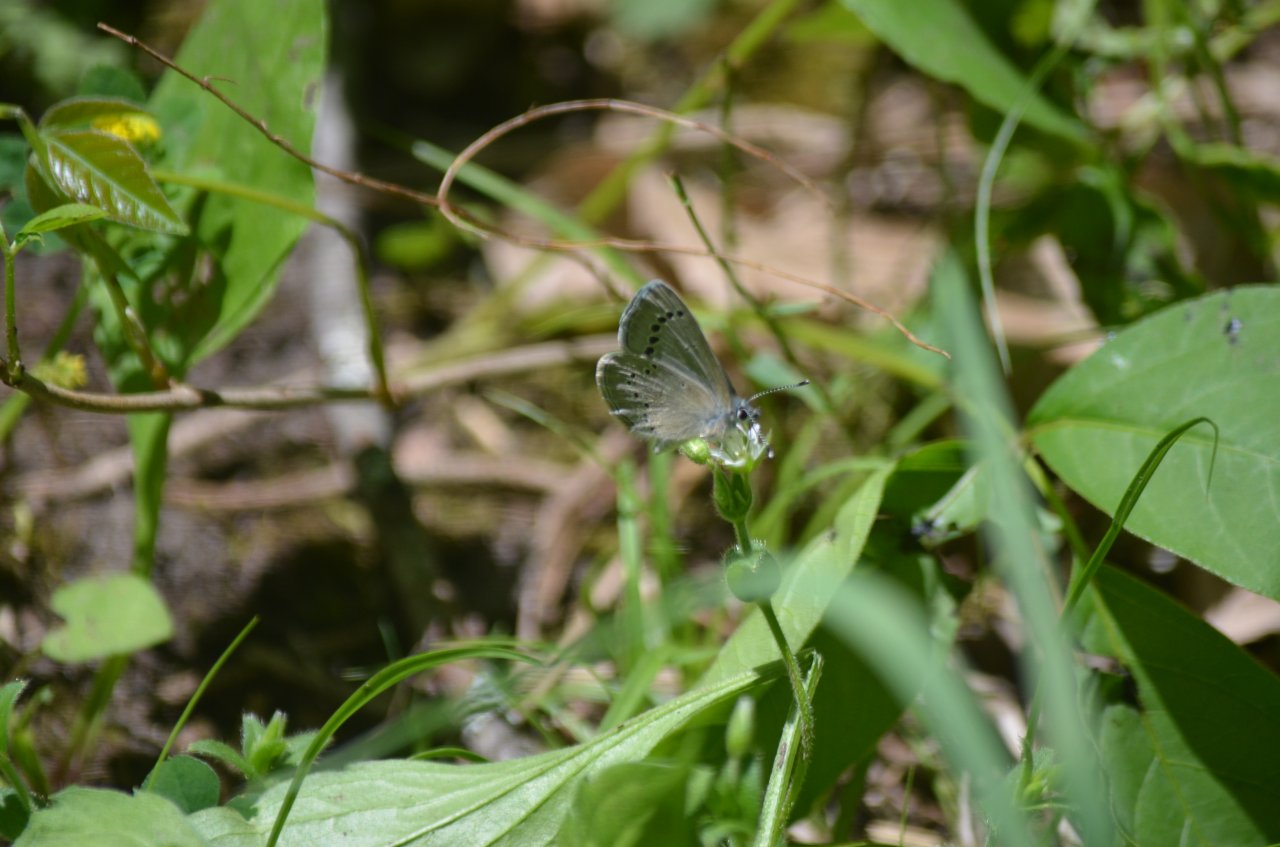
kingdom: Animalia
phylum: Arthropoda
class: Insecta
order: Lepidoptera
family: Lycaenidae
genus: Glaucopsyche
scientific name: Glaucopsyche lygdamus
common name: Silvery Blue
